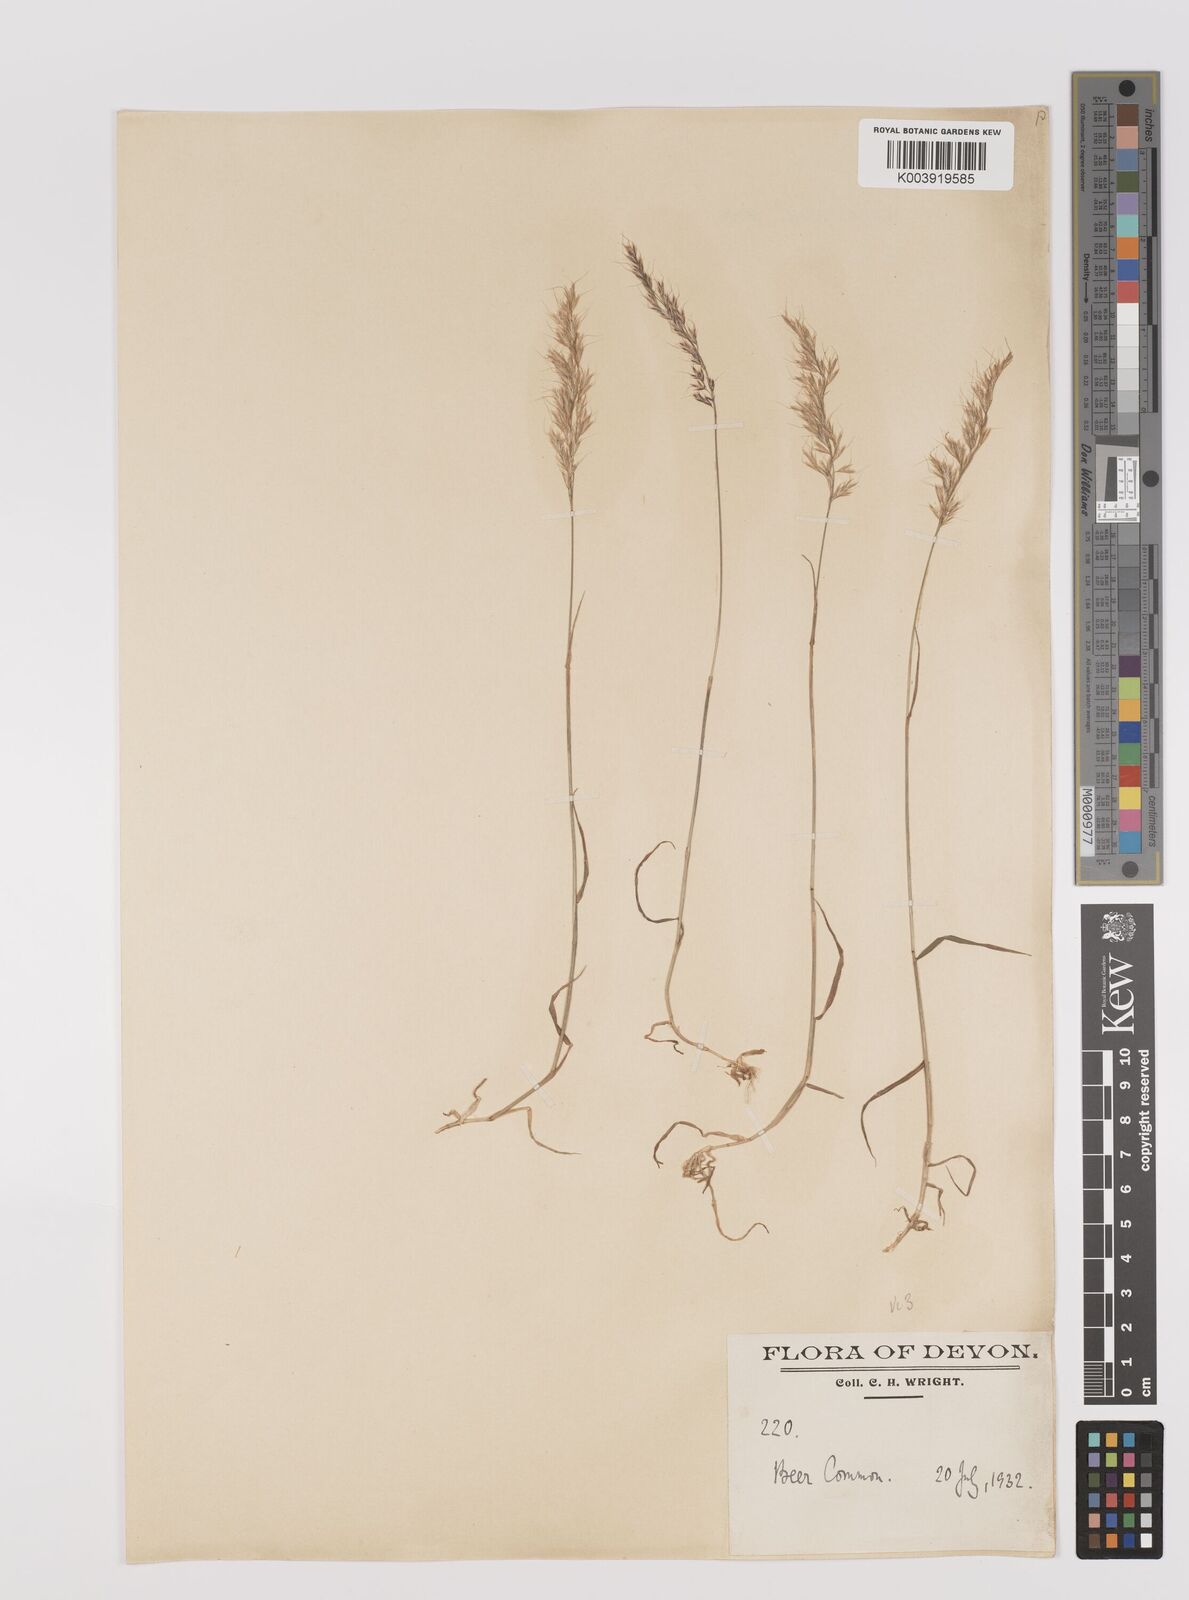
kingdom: Plantae
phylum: Tracheophyta
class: Liliopsida
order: Poales
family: Poaceae
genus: Trisetum
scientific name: Trisetum flavescens
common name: Yellow oat-grass
